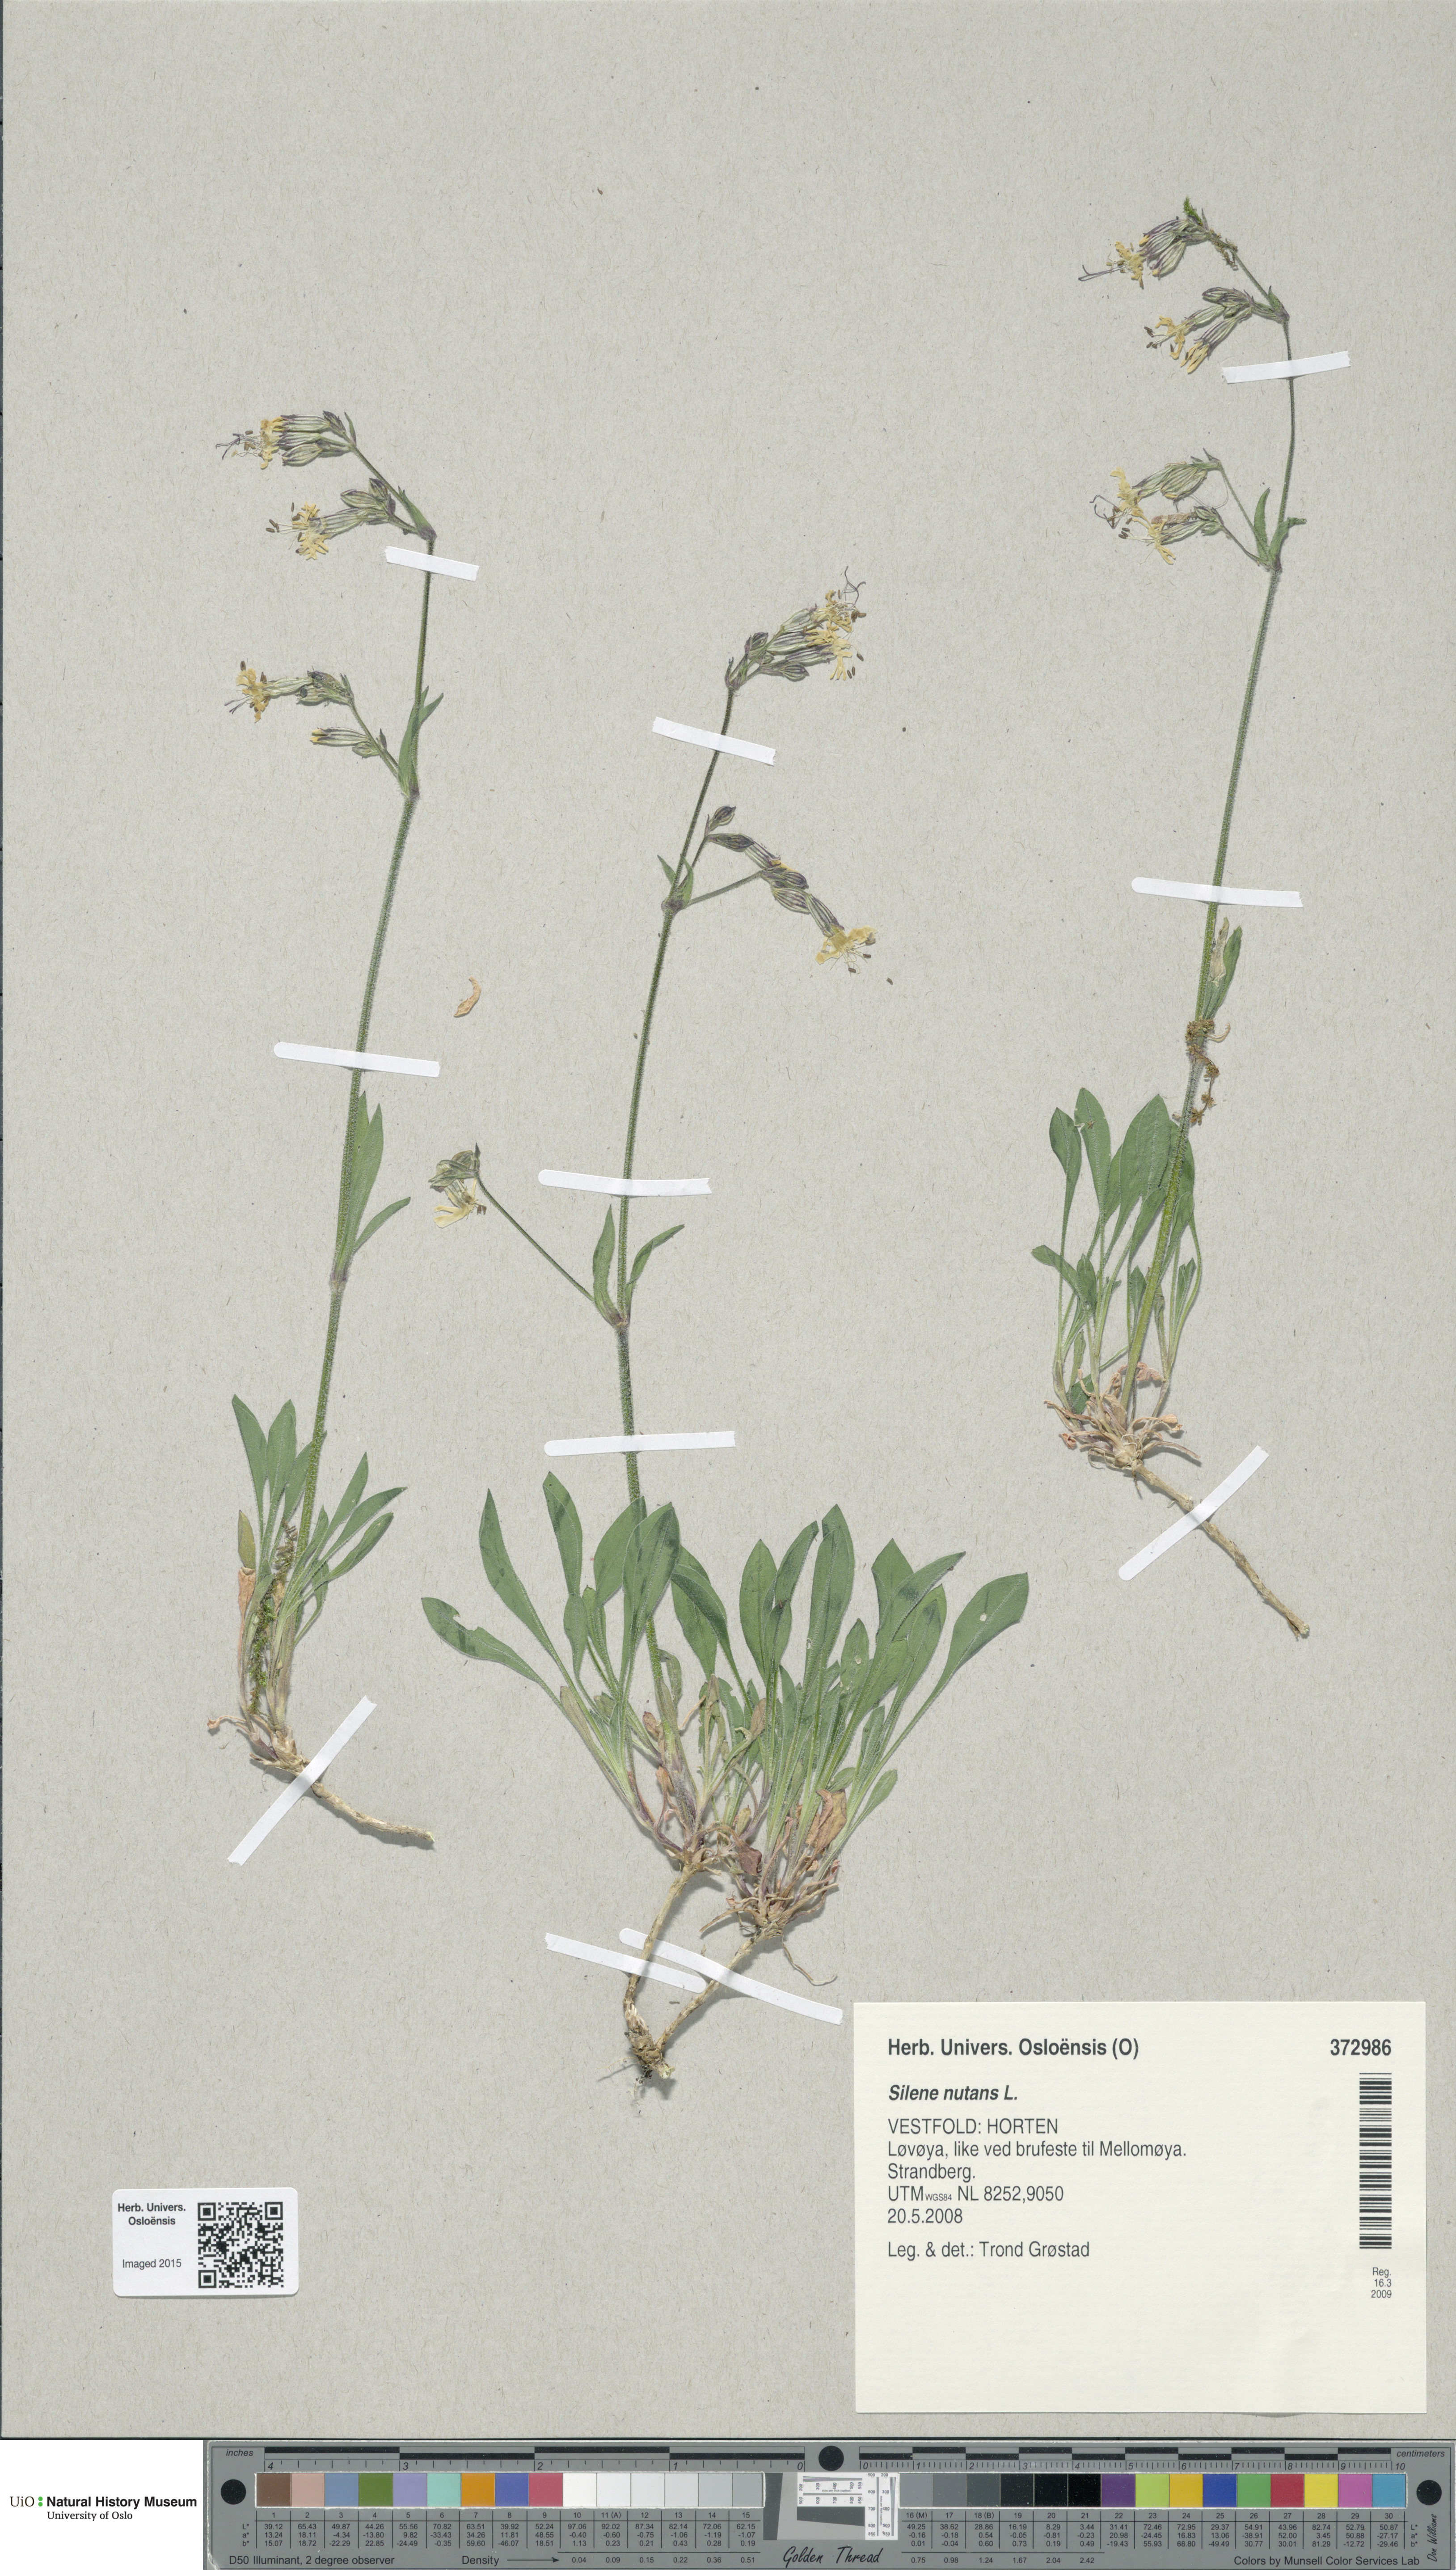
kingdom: Plantae
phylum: Tracheophyta
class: Magnoliopsida
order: Caryophyllales
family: Caryophyllaceae
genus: Silene
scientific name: Silene nutans
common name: Nottingham catchfly
